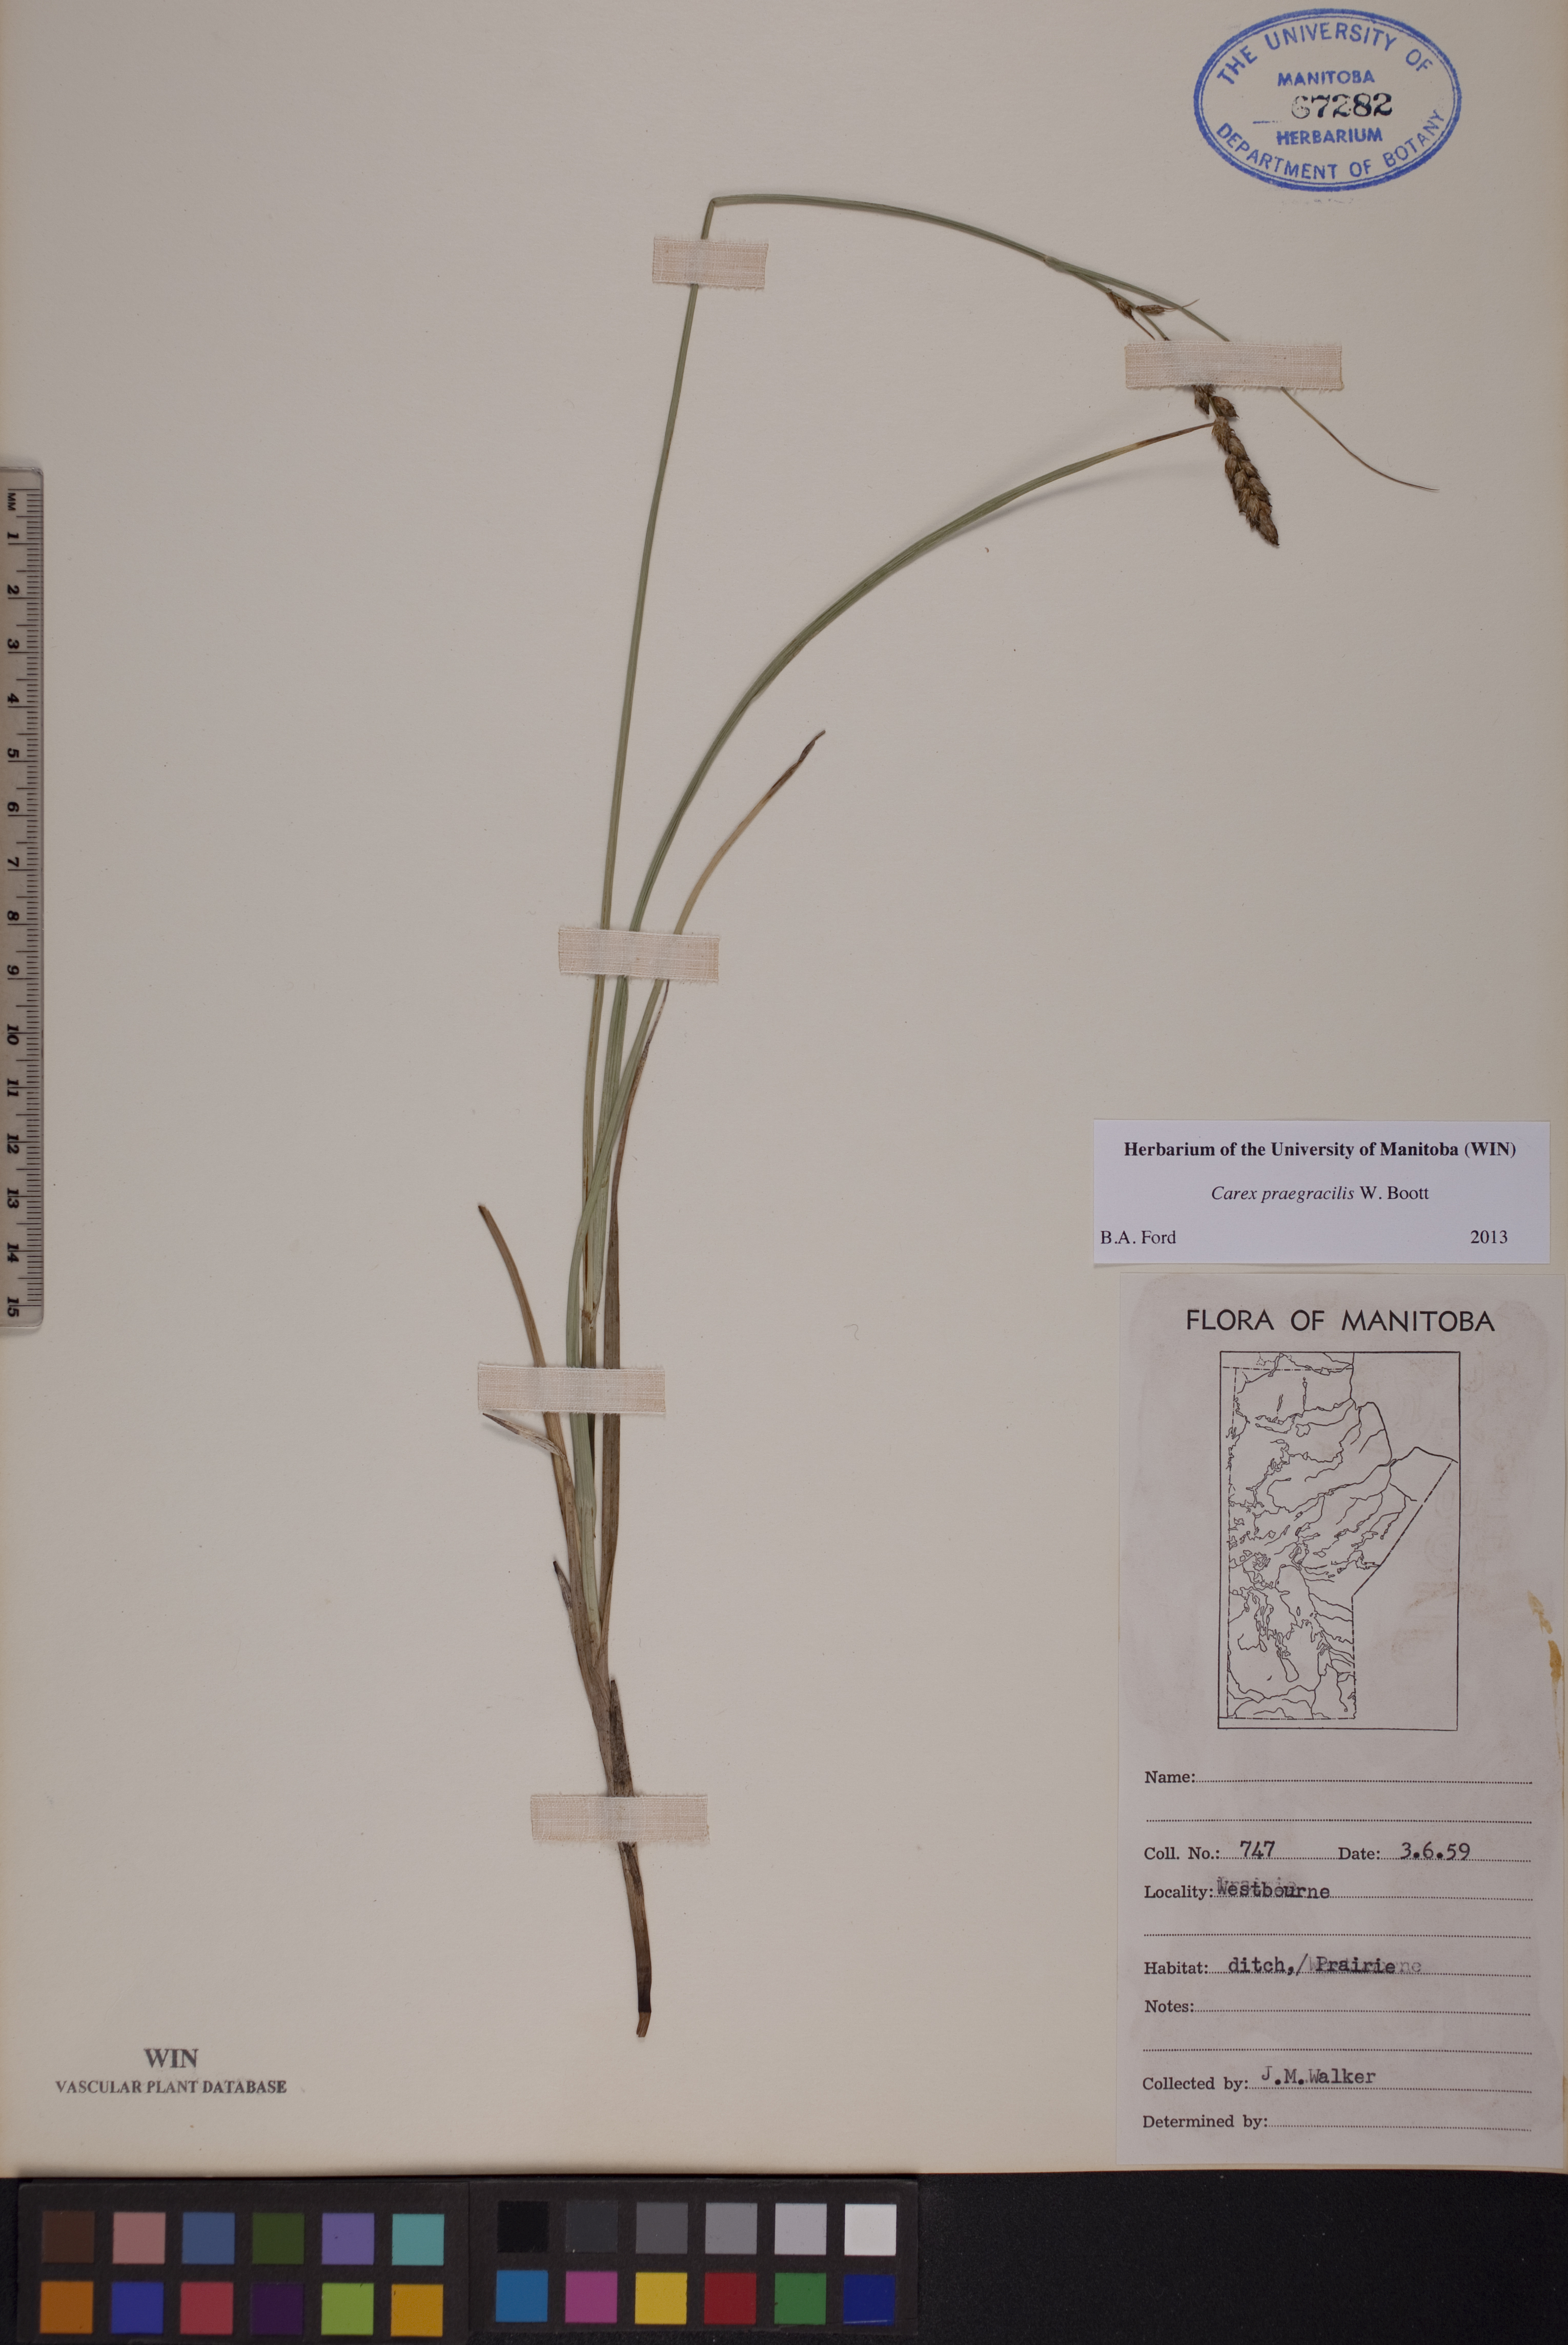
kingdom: Plantae
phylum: Tracheophyta
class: Liliopsida
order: Poales
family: Cyperaceae
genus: Carex
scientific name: Carex praegracilis
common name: Black creeper sedge
